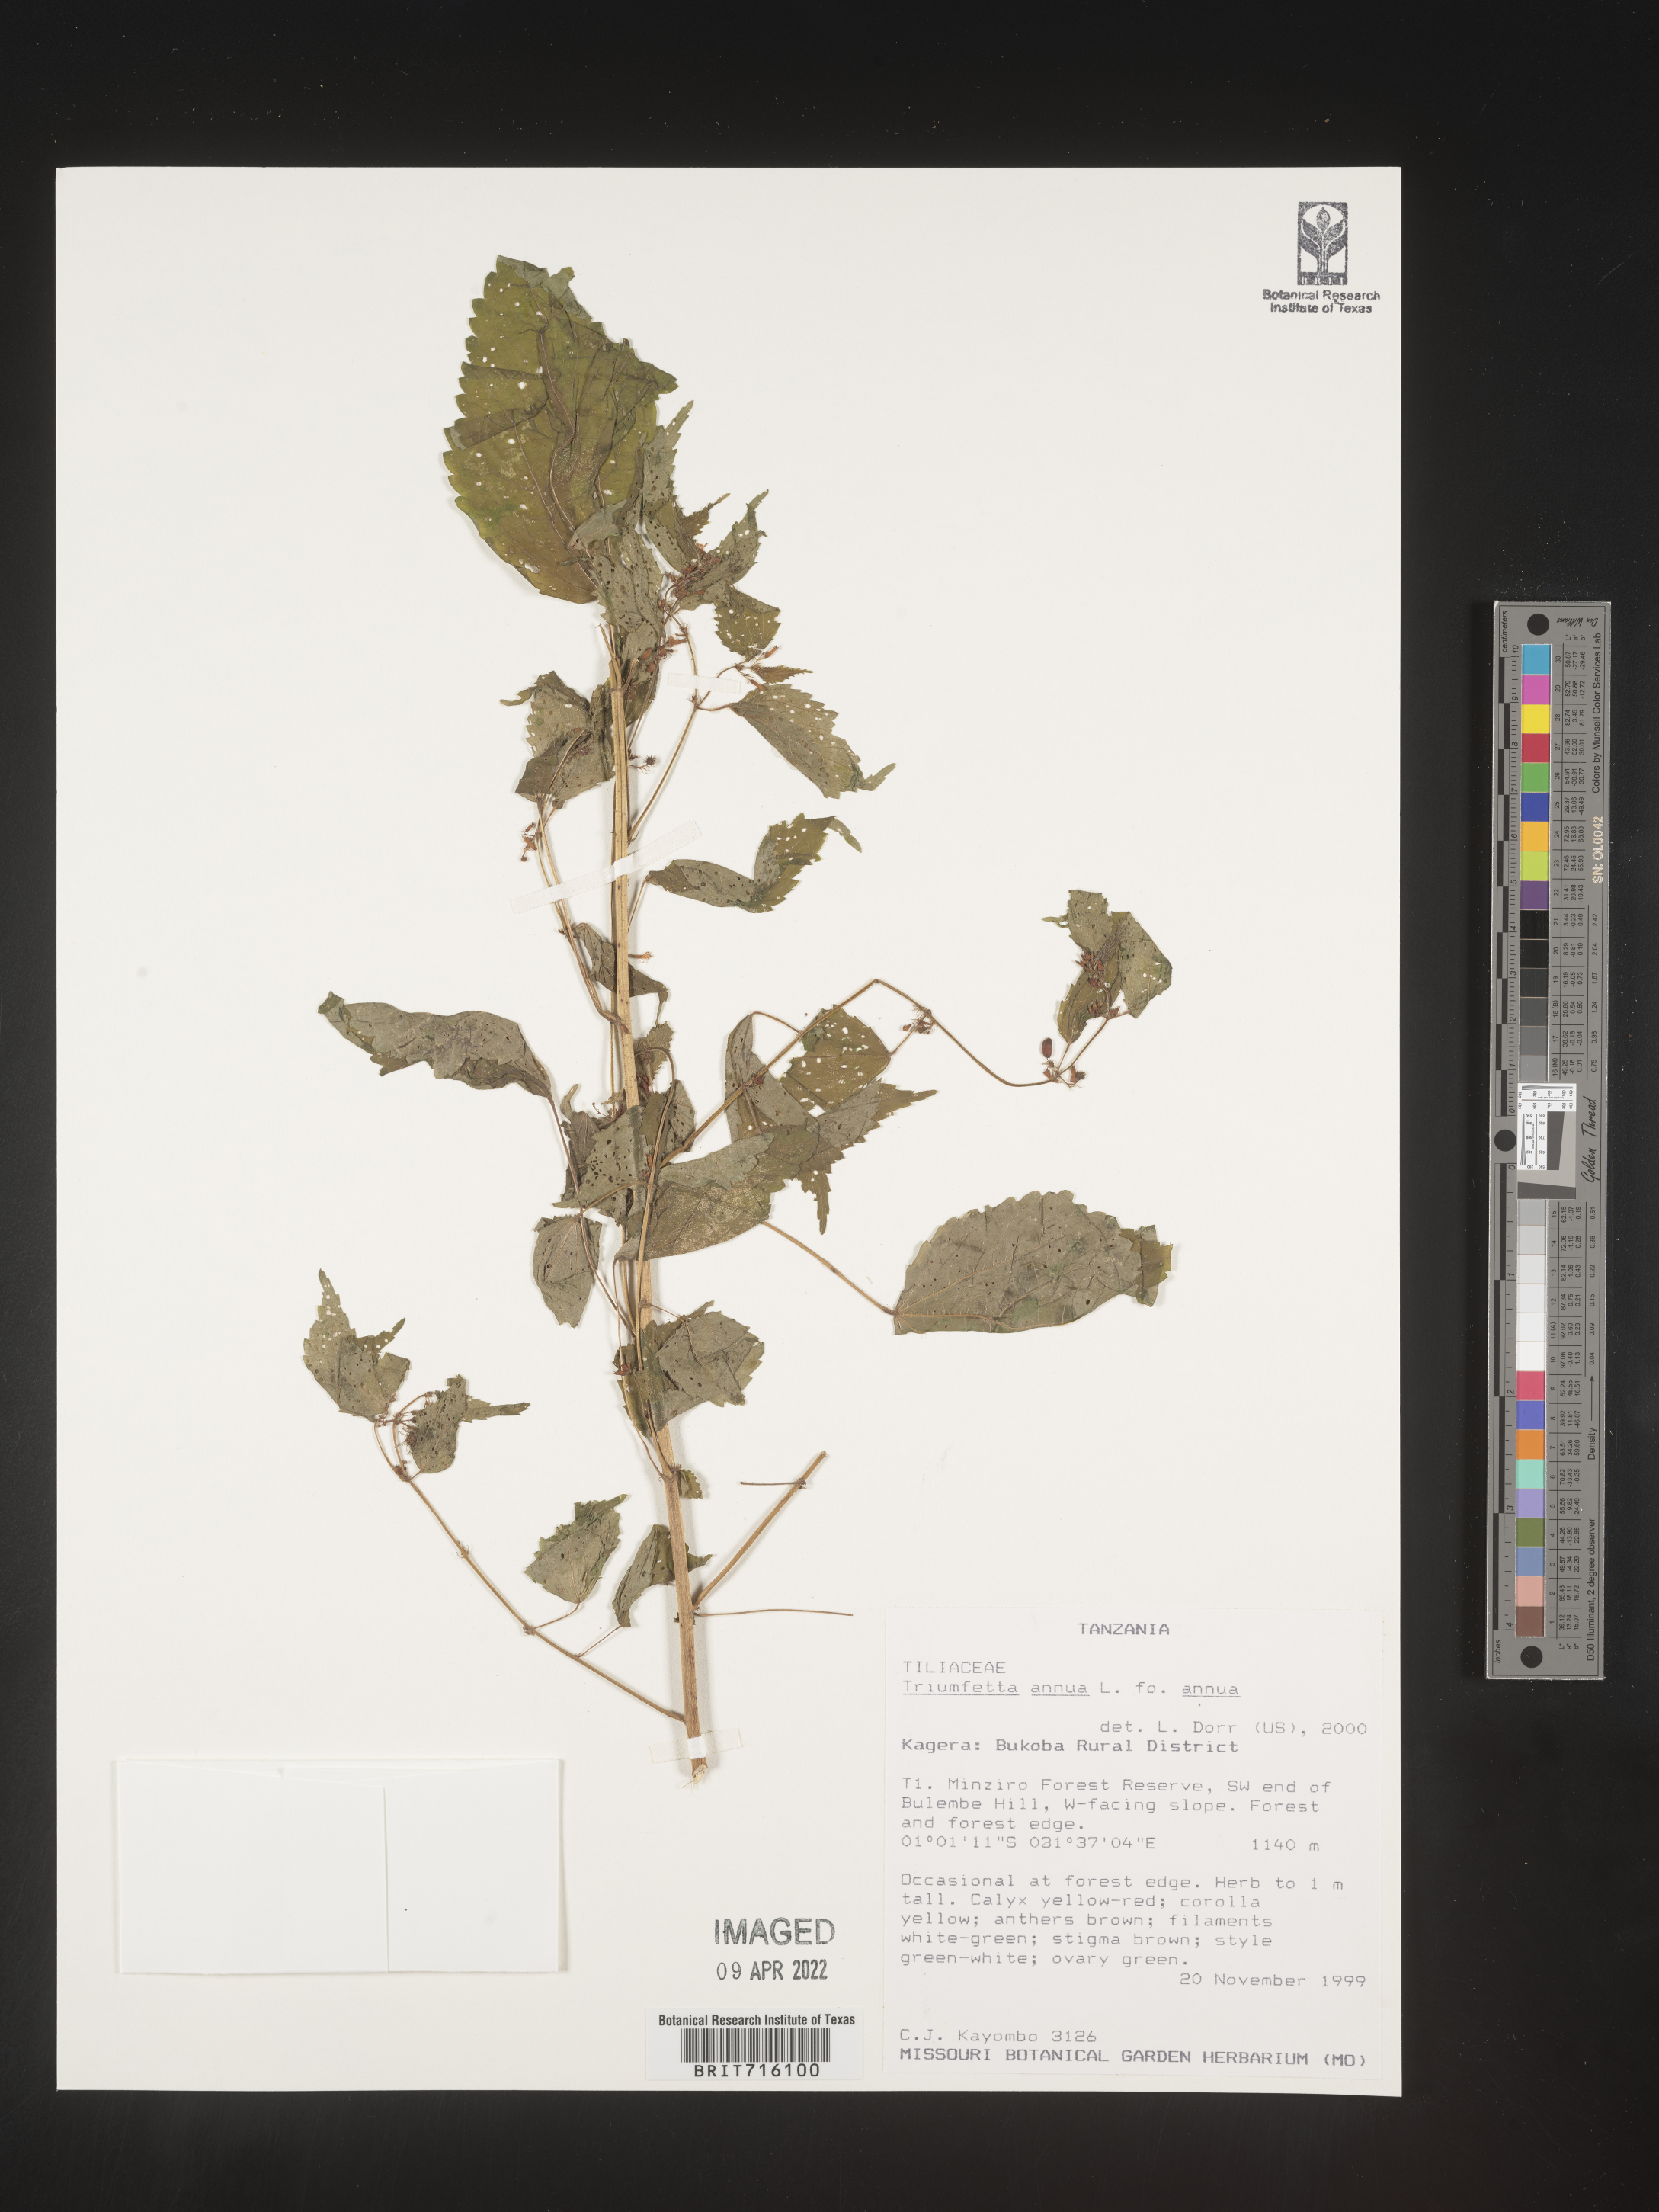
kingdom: Plantae
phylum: Tracheophyta
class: Magnoliopsida
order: Malvales
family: Malvaceae
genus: Triumfetta
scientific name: Triumfetta
